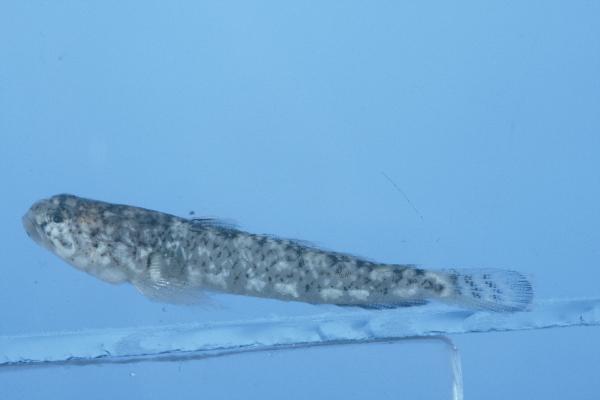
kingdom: Animalia
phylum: Chordata
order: Perciformes
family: Gobiidae
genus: Silhouettea
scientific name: Silhouettea insinuans
